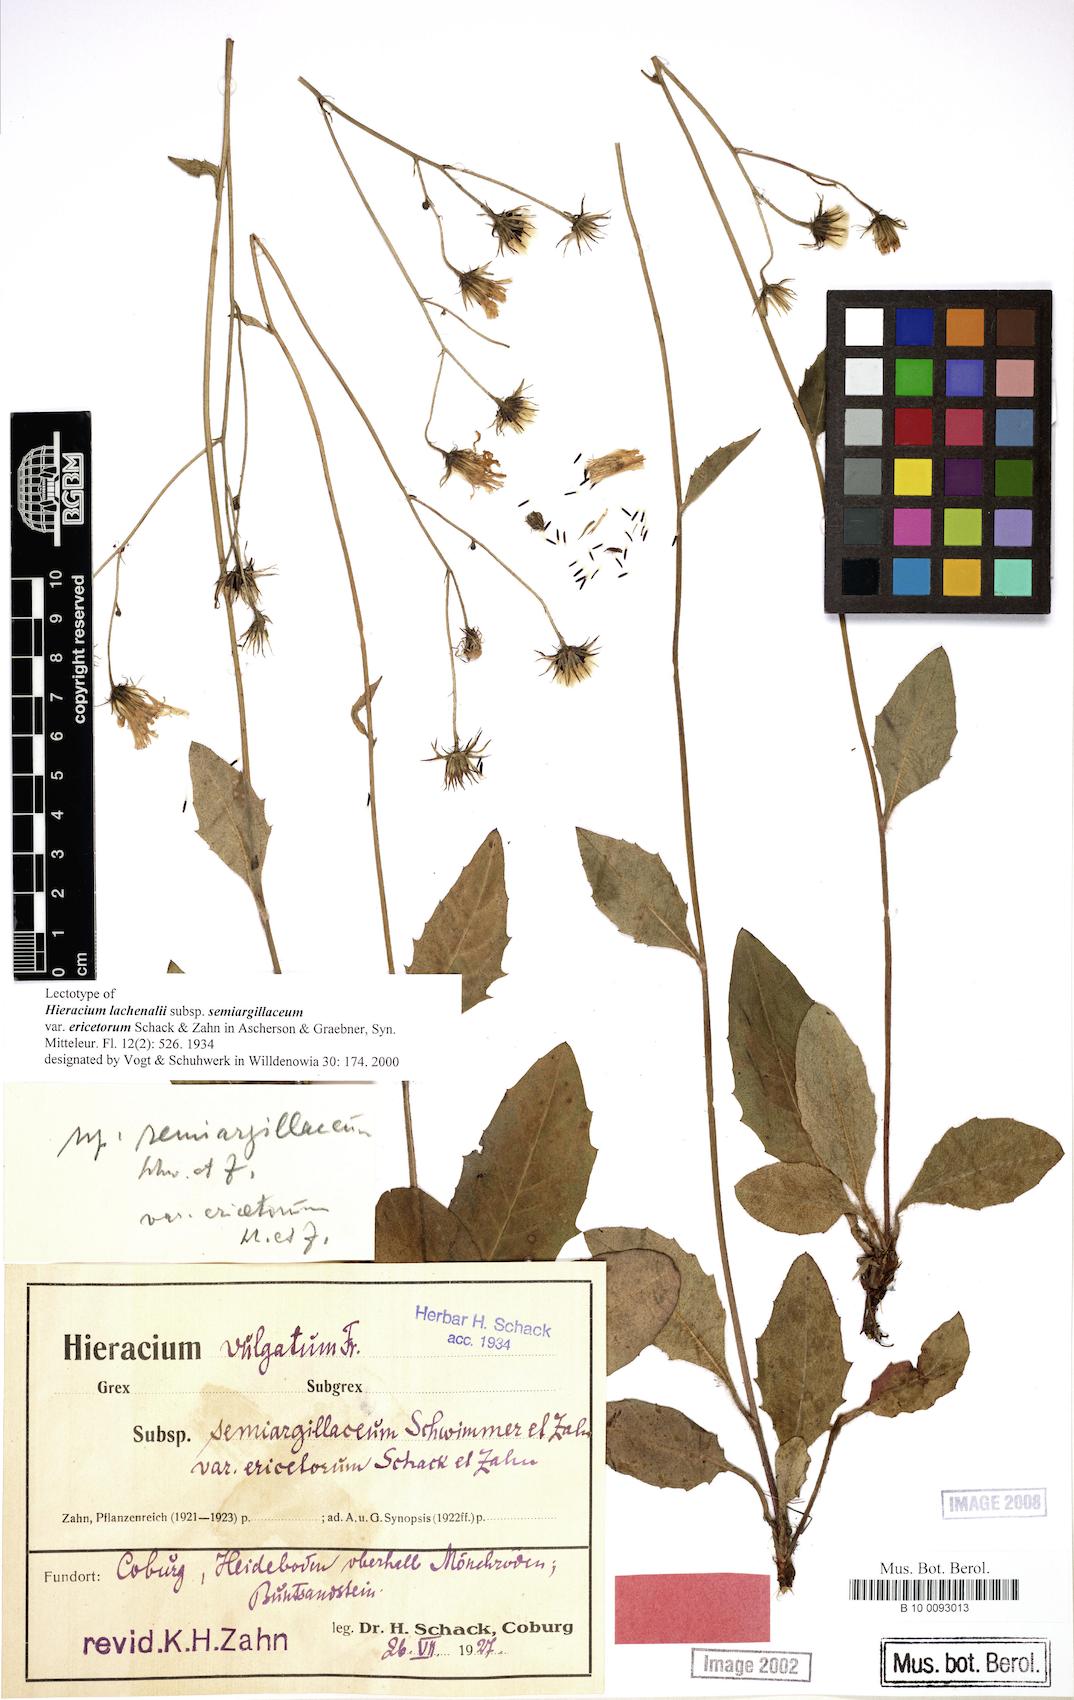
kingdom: Plantae
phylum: Tracheophyta
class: Magnoliopsida
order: Asterales
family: Asteraceae
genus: Hieracium
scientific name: Hieracium lachenalii
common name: Common hawkweed
